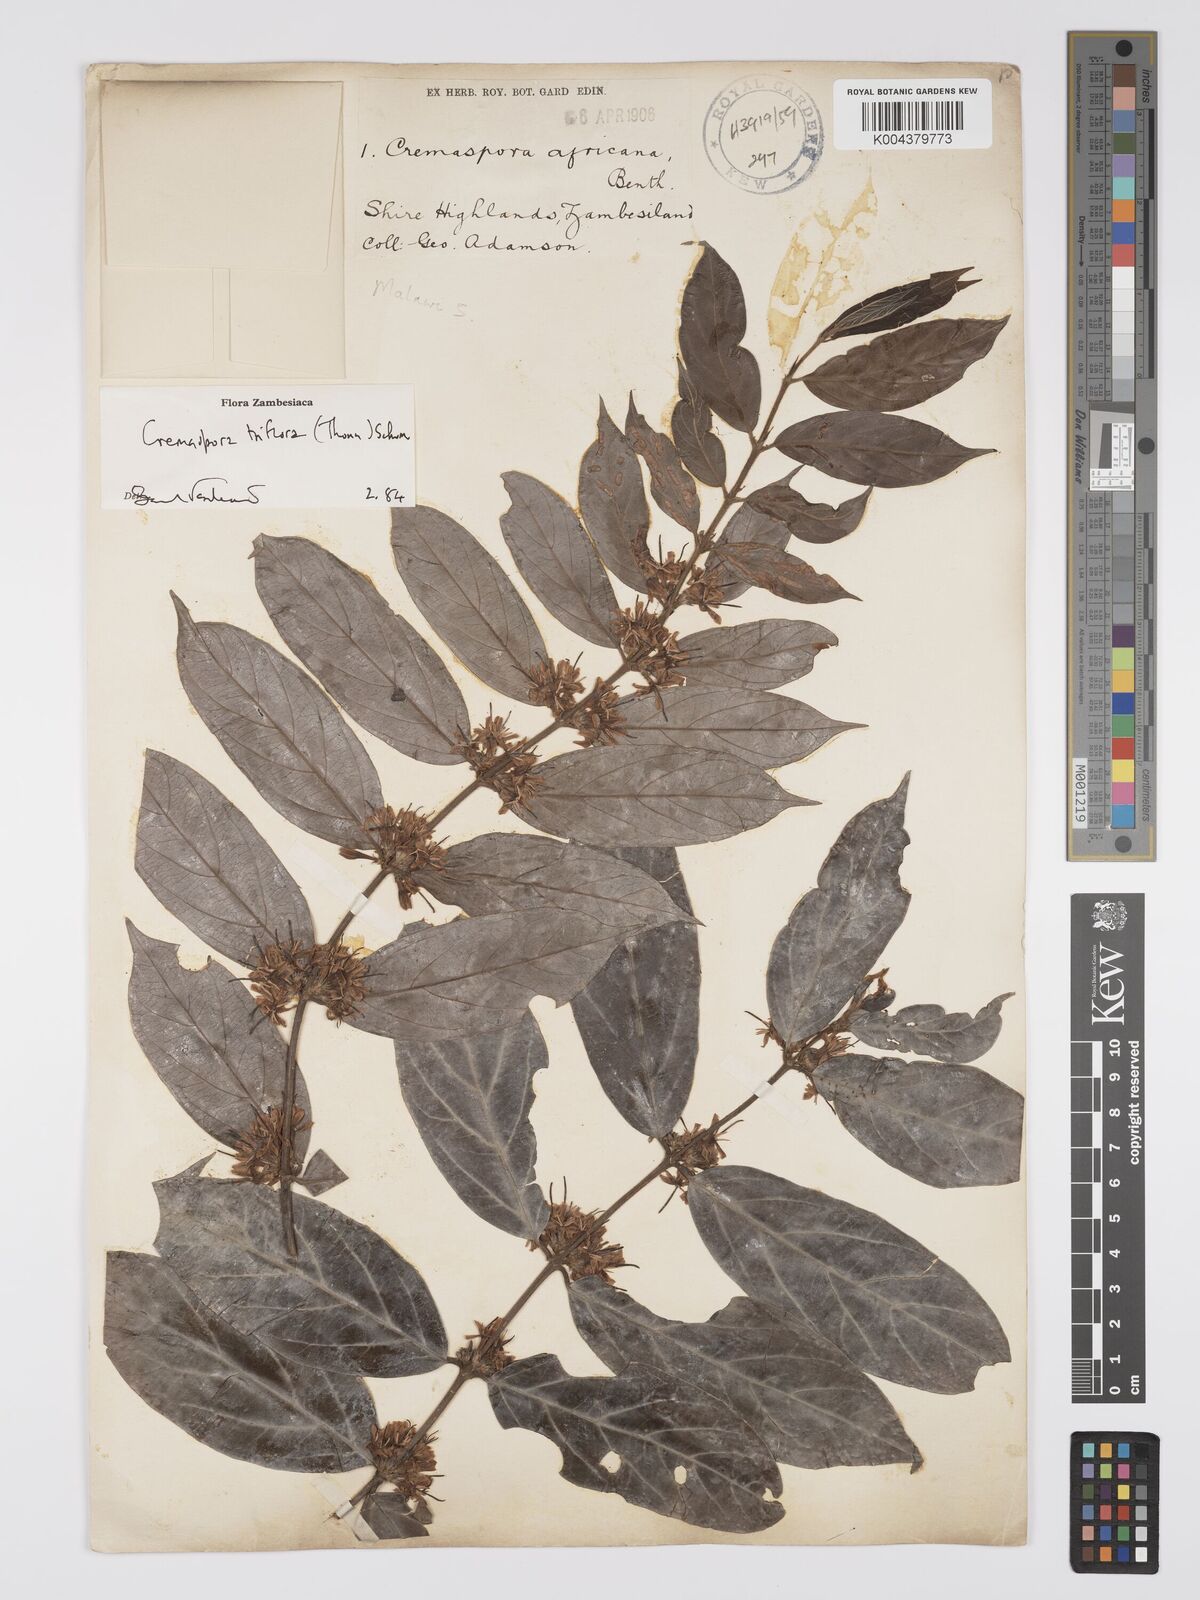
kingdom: Plantae
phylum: Tracheophyta
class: Magnoliopsida
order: Gentianales
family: Rubiaceae
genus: Cremaspora
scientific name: Cremaspora triflora
